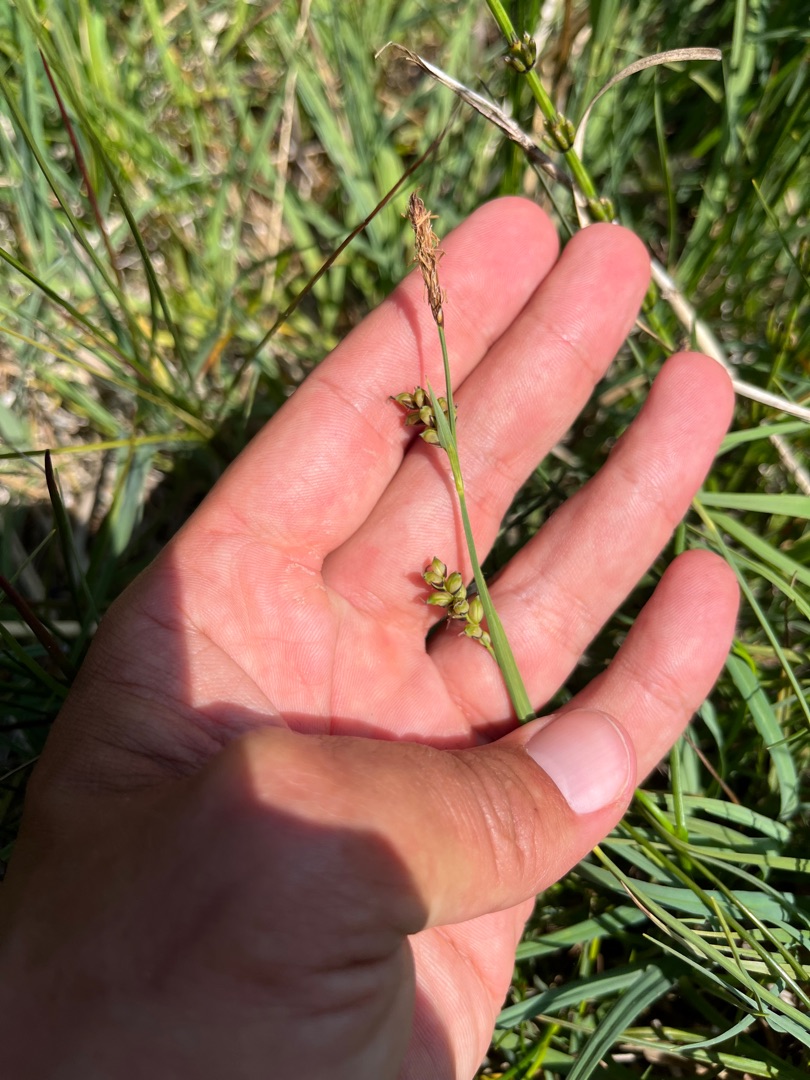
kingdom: Plantae
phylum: Tracheophyta
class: Liliopsida
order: Poales
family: Cyperaceae
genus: Carex
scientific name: Carex panicea
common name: Hirse-star
